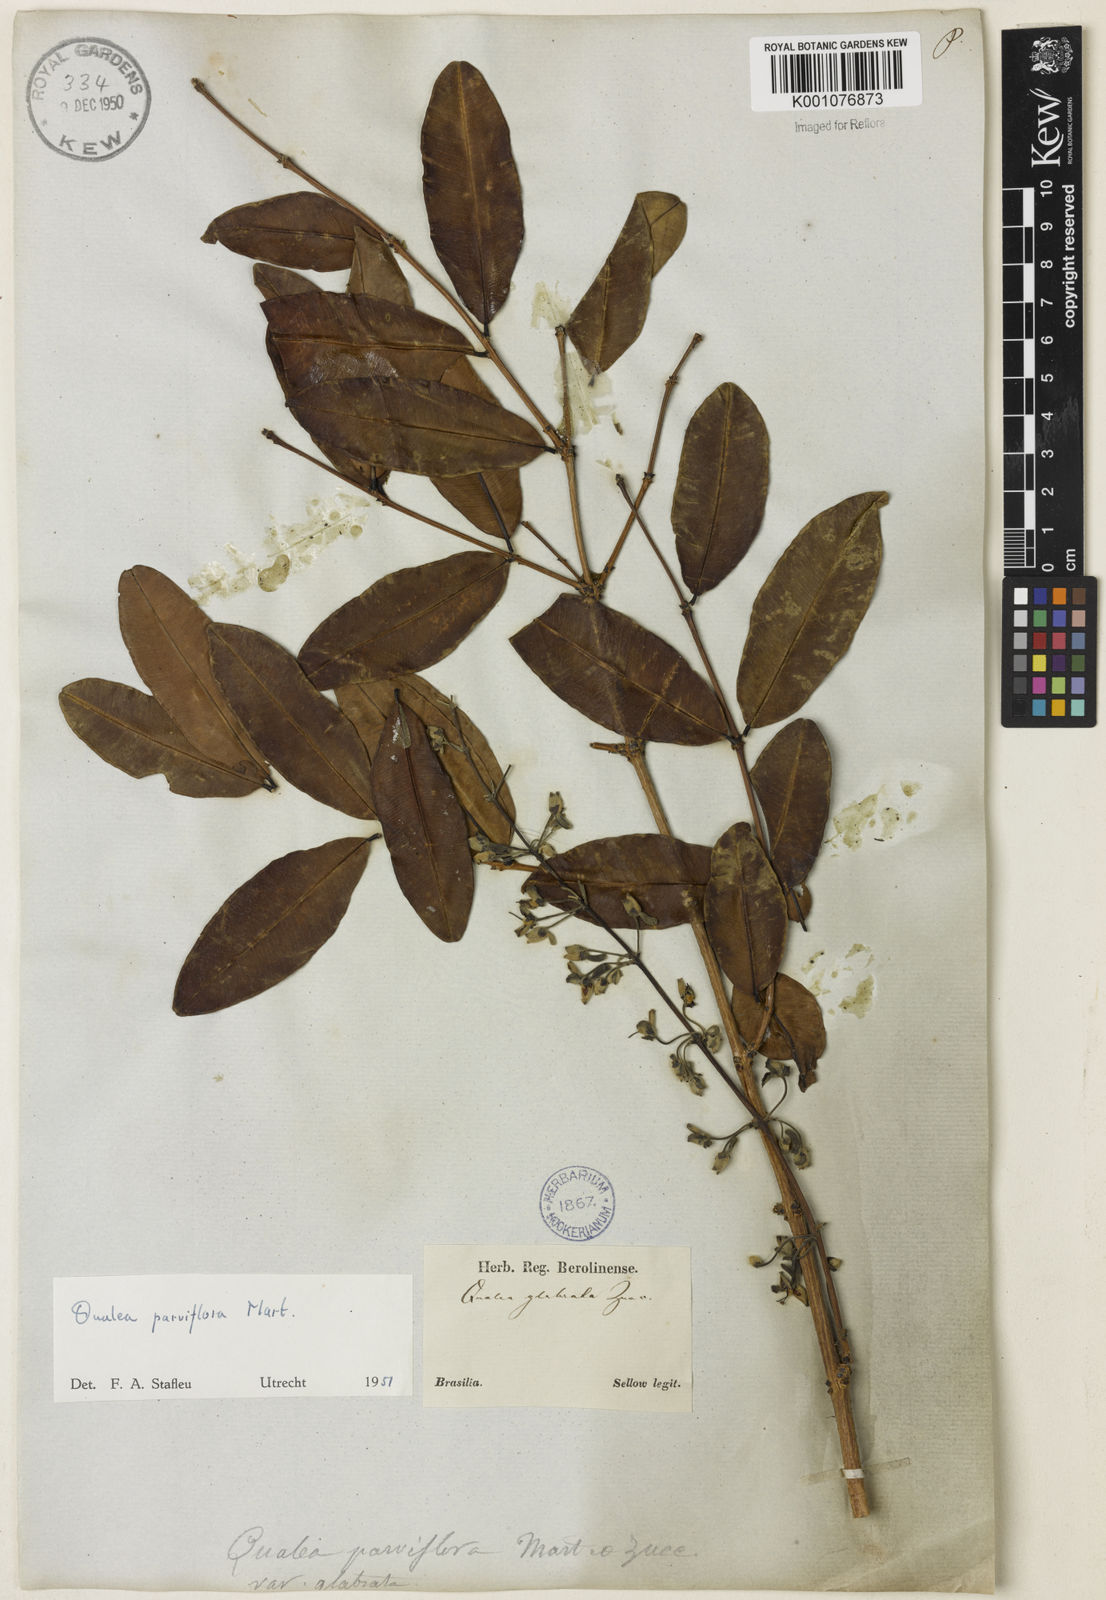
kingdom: Plantae
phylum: Tracheophyta
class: Magnoliopsida
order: Myrtales
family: Vochysiaceae
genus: Qualea
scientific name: Qualea parviflora
